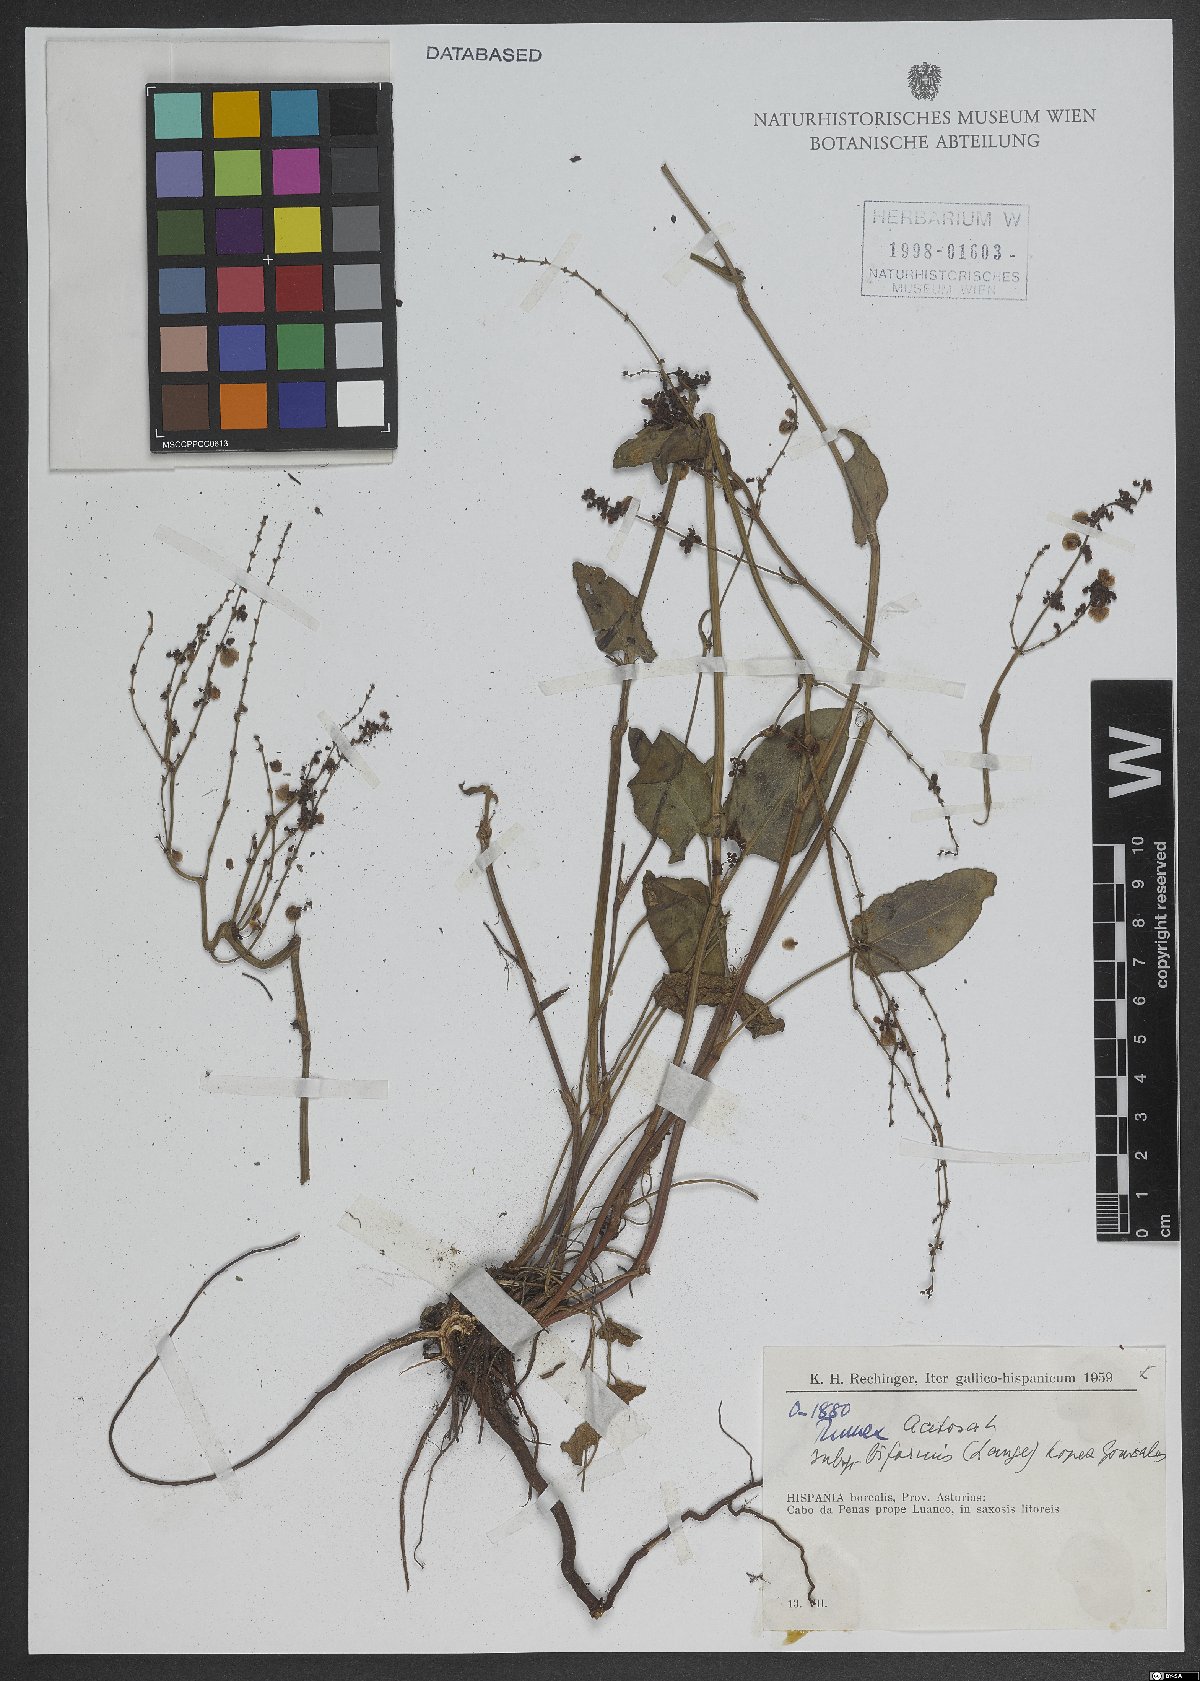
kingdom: Plantae
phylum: Tracheophyta
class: Magnoliopsida
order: Caryophyllales
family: Polygonaceae
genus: Rumex
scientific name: Rumex acetosa
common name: Garden sorrel
